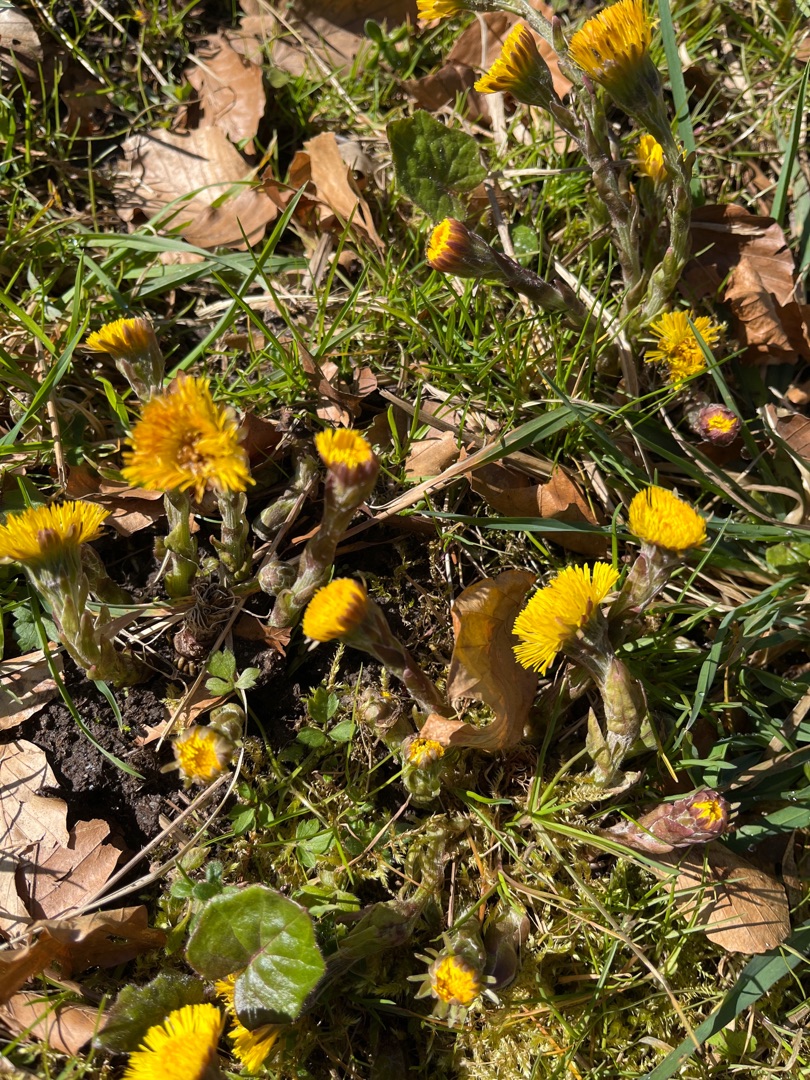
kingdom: Plantae
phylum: Tracheophyta
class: Magnoliopsida
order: Asterales
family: Asteraceae
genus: Tussilago
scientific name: Tussilago farfara
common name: Følfod
